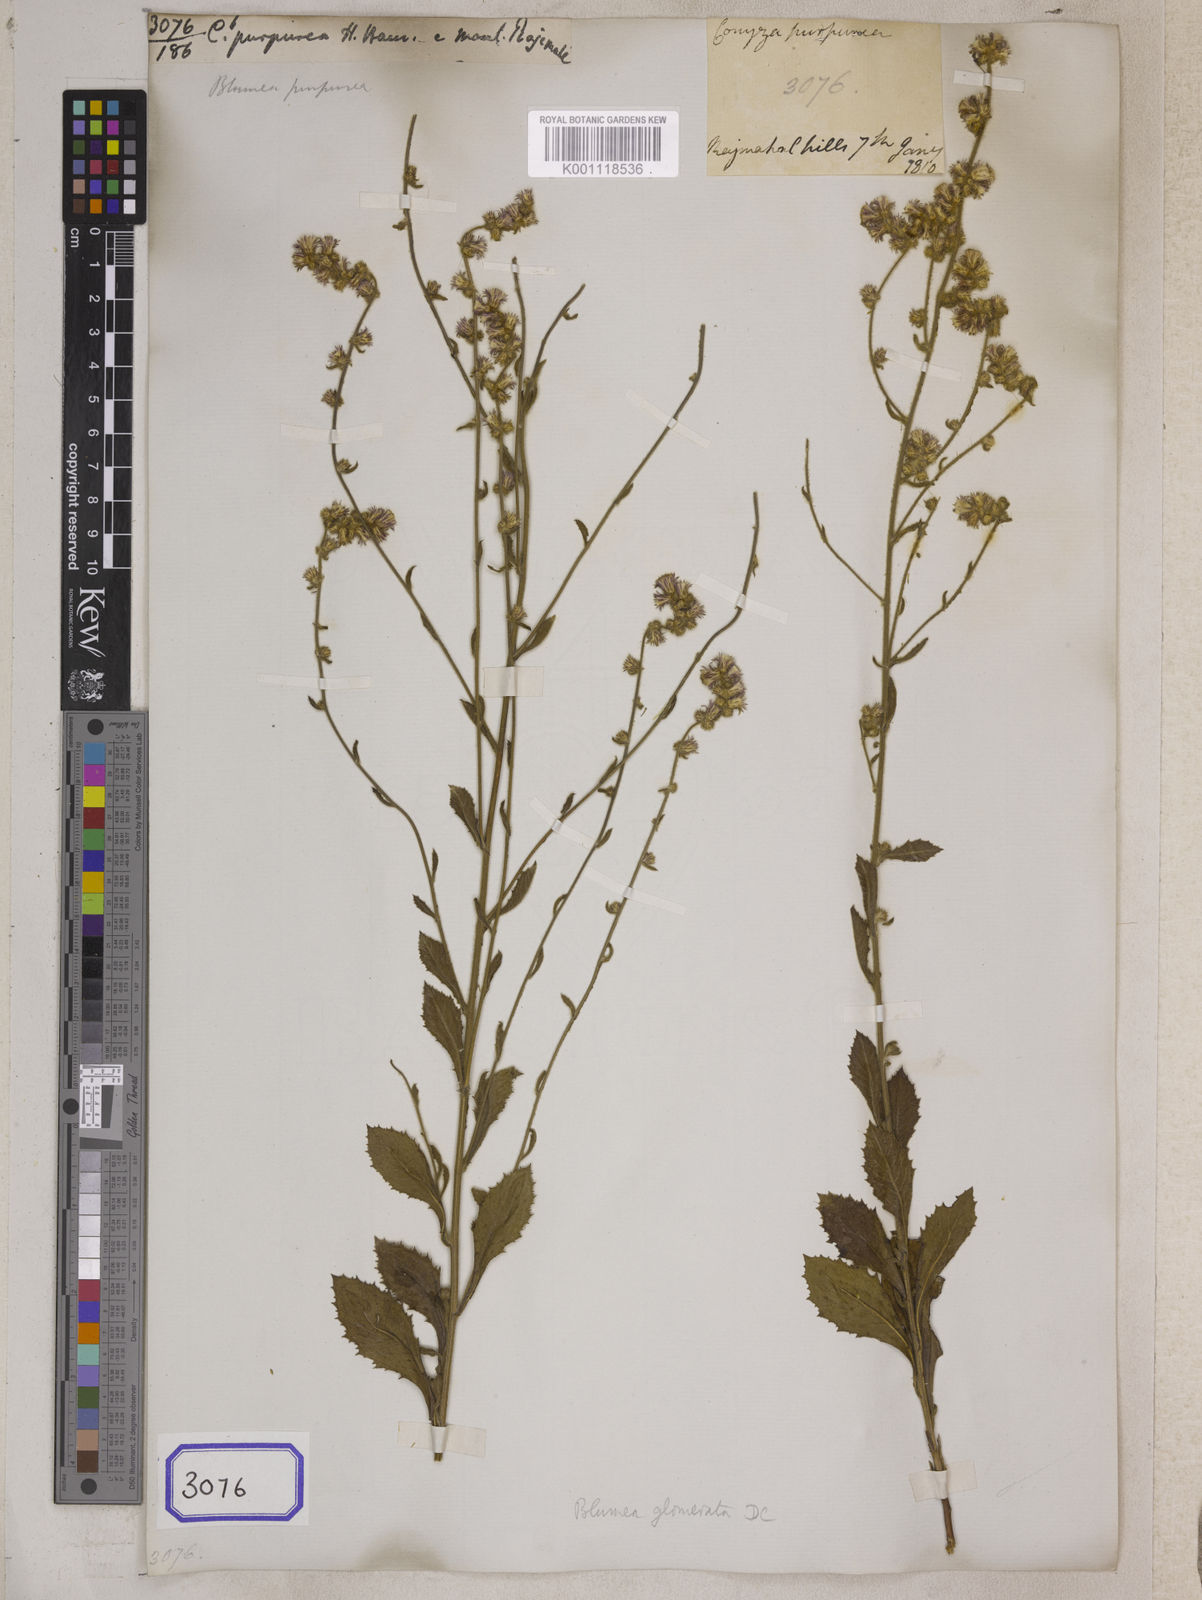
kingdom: Plantae
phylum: Tracheophyta
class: Magnoliopsida
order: Asterales
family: Asteraceae
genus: Blumea
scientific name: Blumea fistulosa
